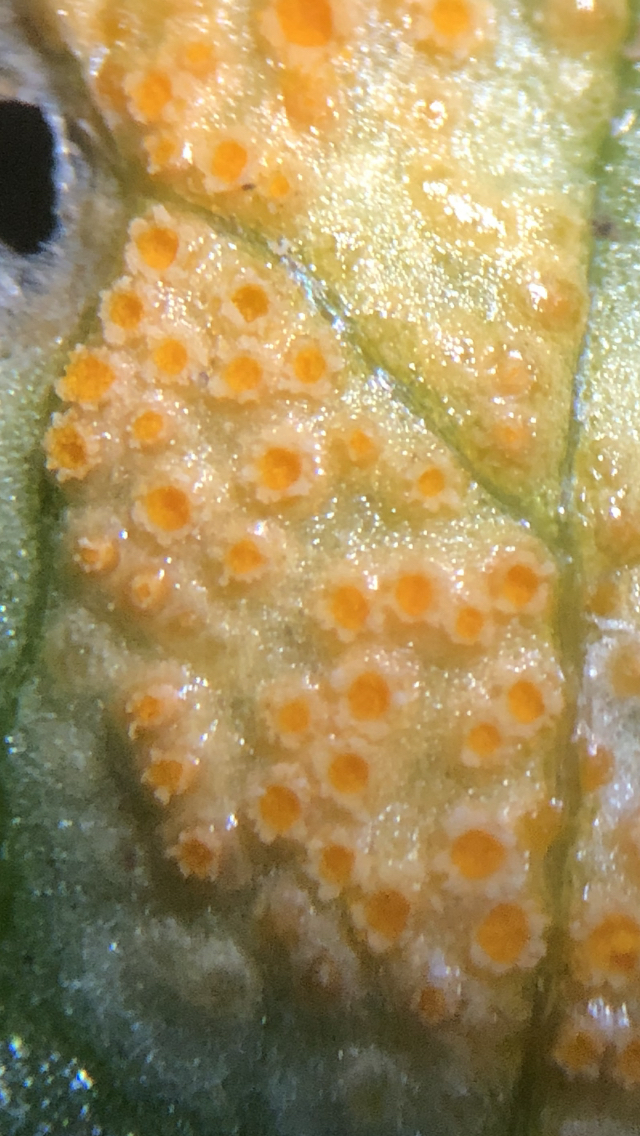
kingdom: Fungi
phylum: Basidiomycota
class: Pucciniomycetes
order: Pucciniales
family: Pucciniaceae
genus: Uromyces
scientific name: Uromyces dactylidis
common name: ranunkel-encellerust
